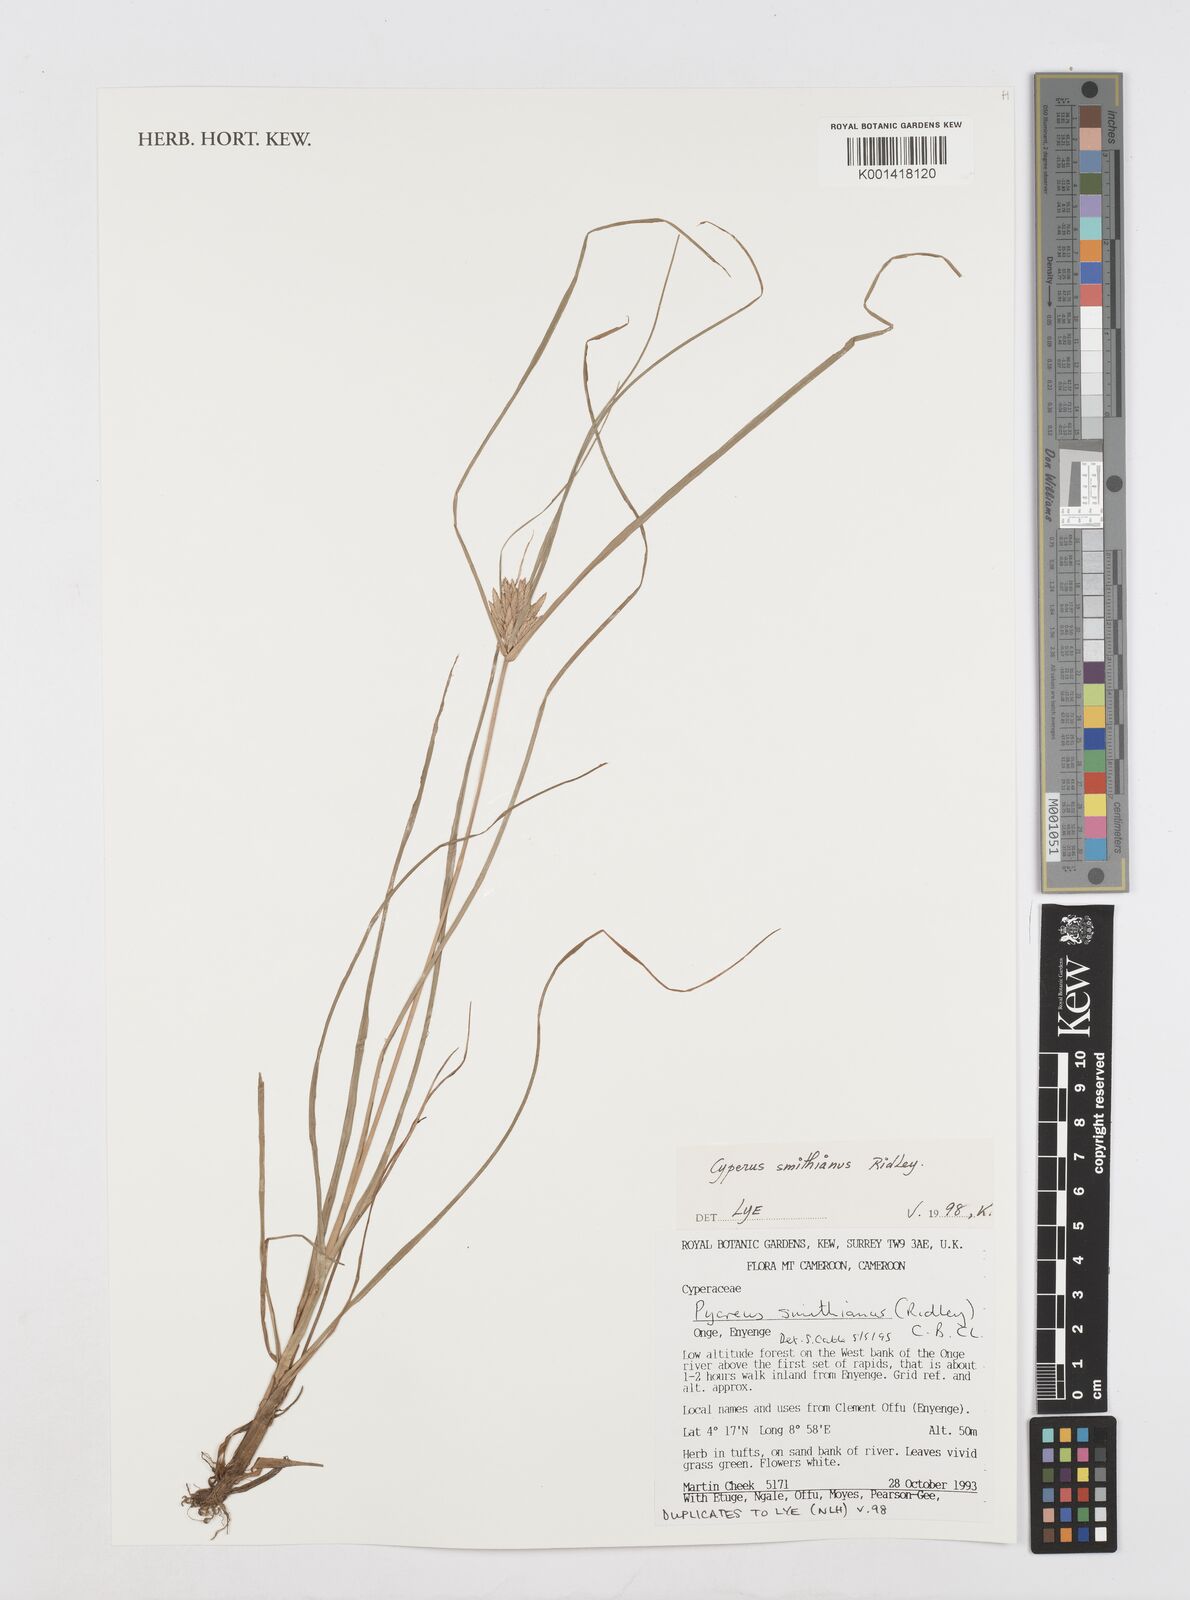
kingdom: Plantae
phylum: Tracheophyta
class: Liliopsida
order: Poales
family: Cyperaceae
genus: Cyperus
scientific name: Cyperus smithianus
